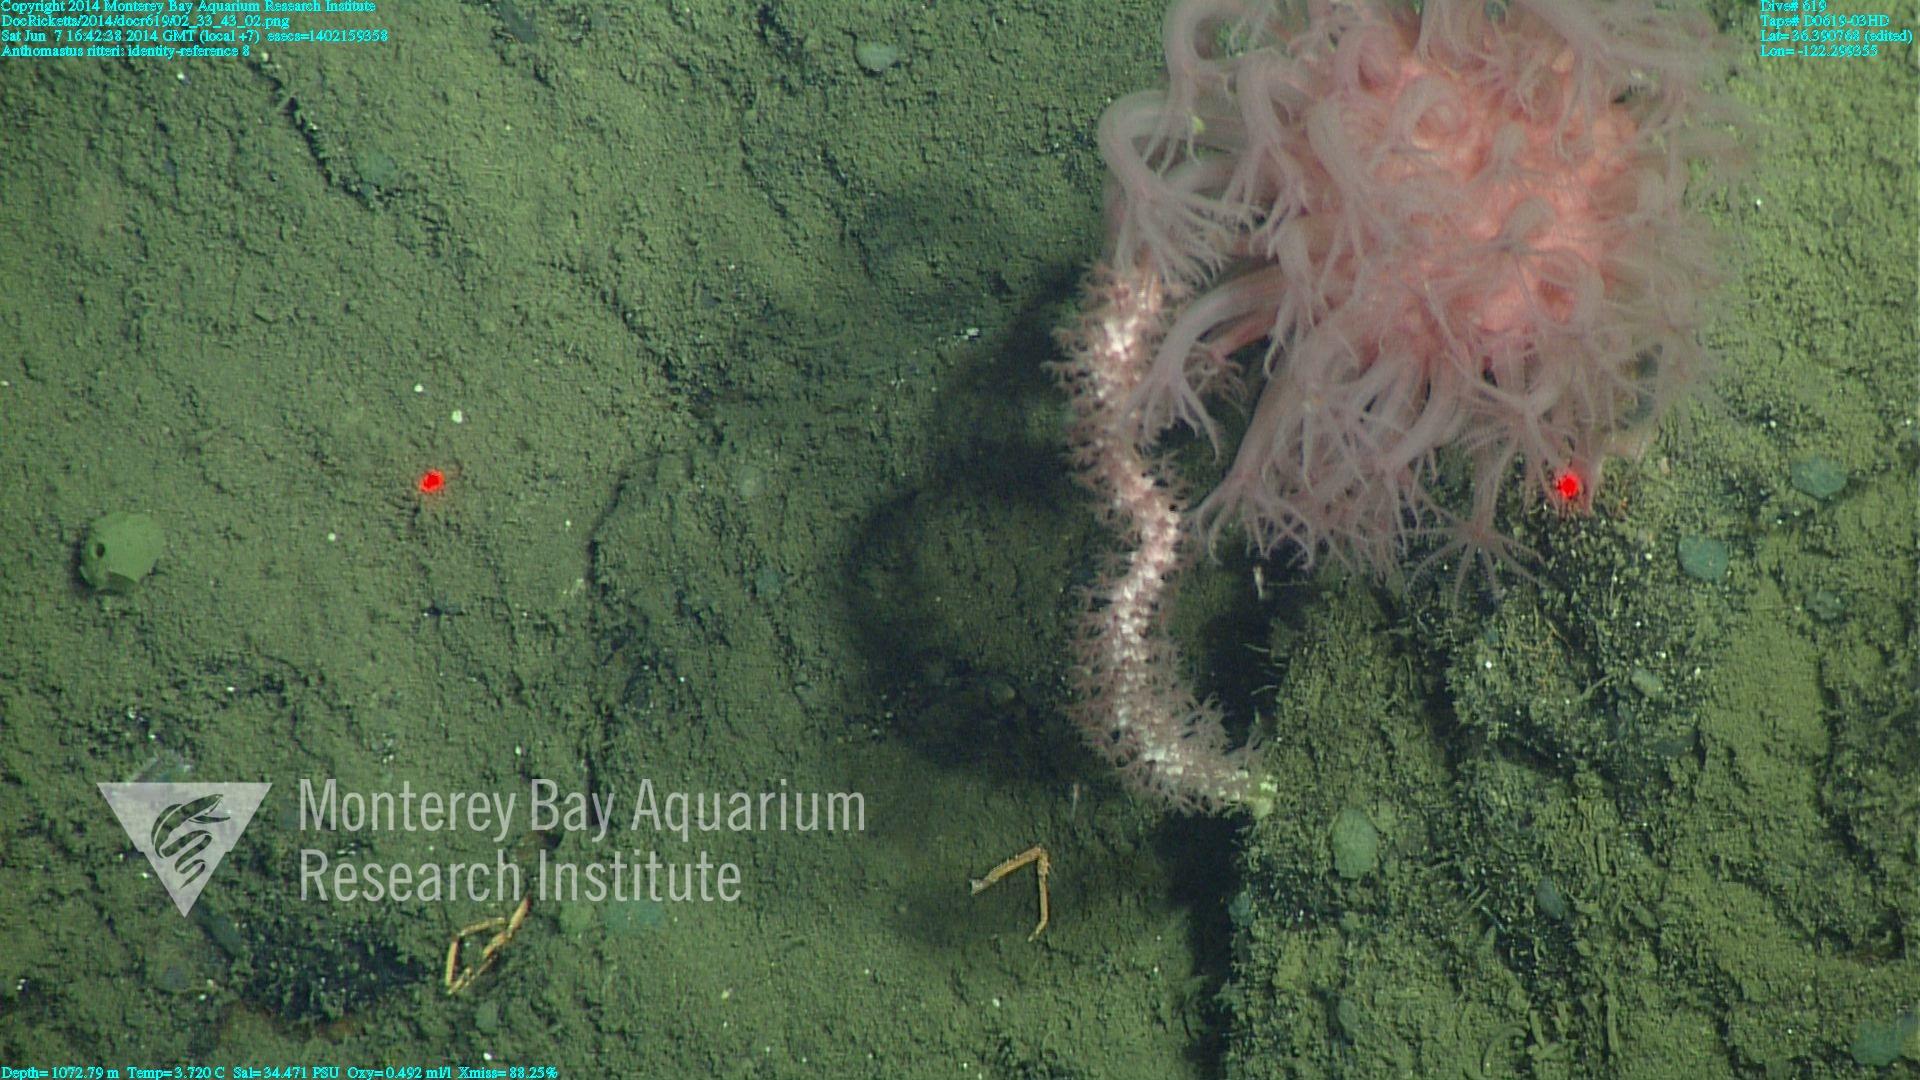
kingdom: Animalia
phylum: Cnidaria
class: Anthozoa
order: Scleralcyonacea
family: Coralliidae
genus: Heteropolypus
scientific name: Heteropolypus ritteri
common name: Ritter's soft coral
